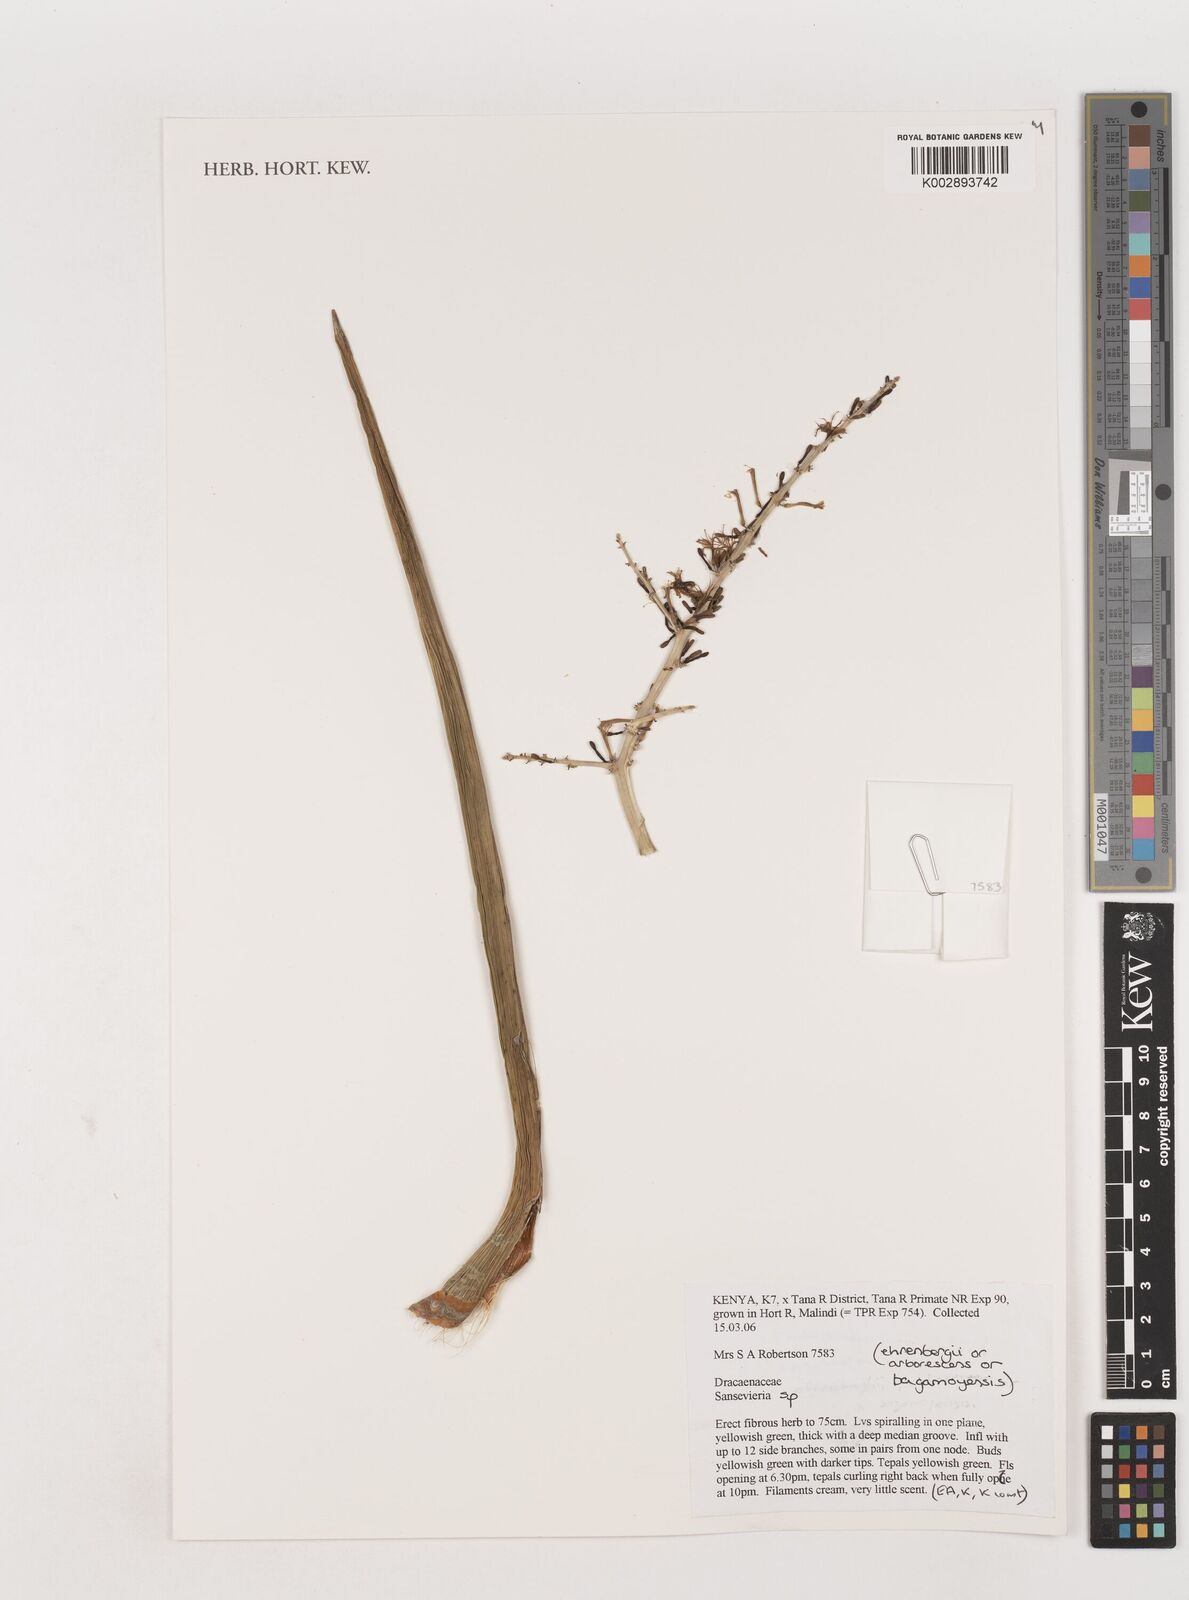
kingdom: Plantae
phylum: Tracheophyta
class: Liliopsida
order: Asparagales
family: Asparagaceae
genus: Dracaena
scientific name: Dracaena
